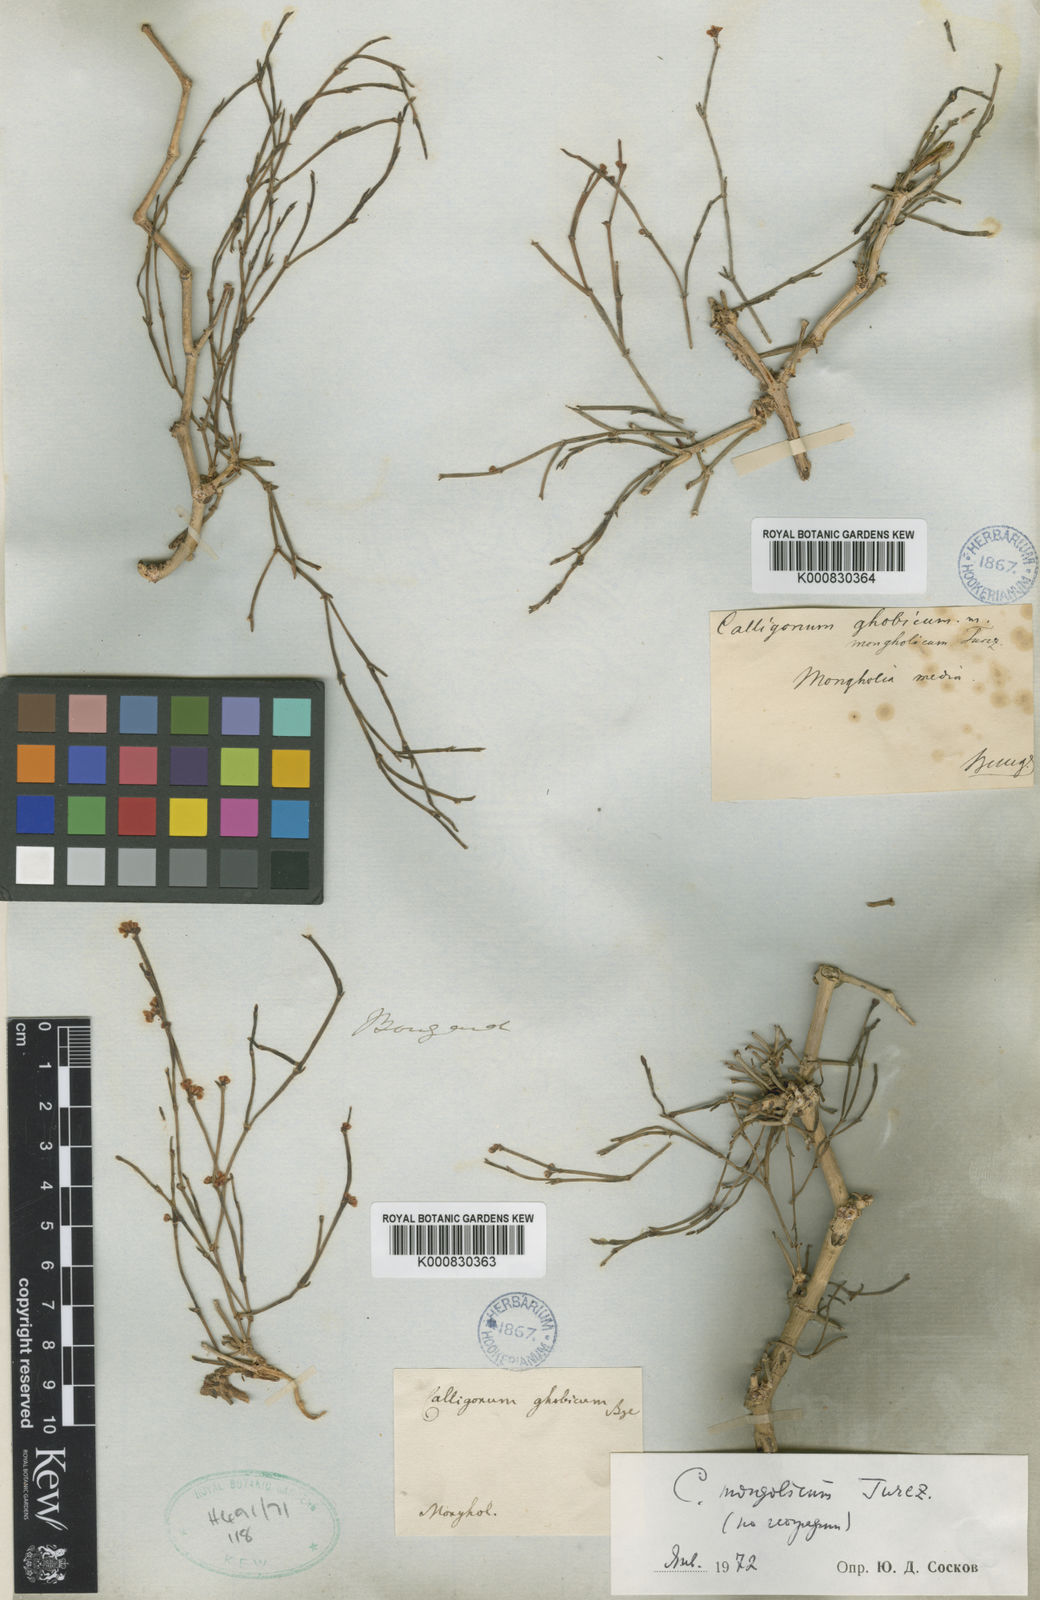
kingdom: Plantae
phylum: Tracheophyta
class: Magnoliopsida
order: Caryophyllales
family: Polygonaceae
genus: Calligonum
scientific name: Calligonum litwinowii
